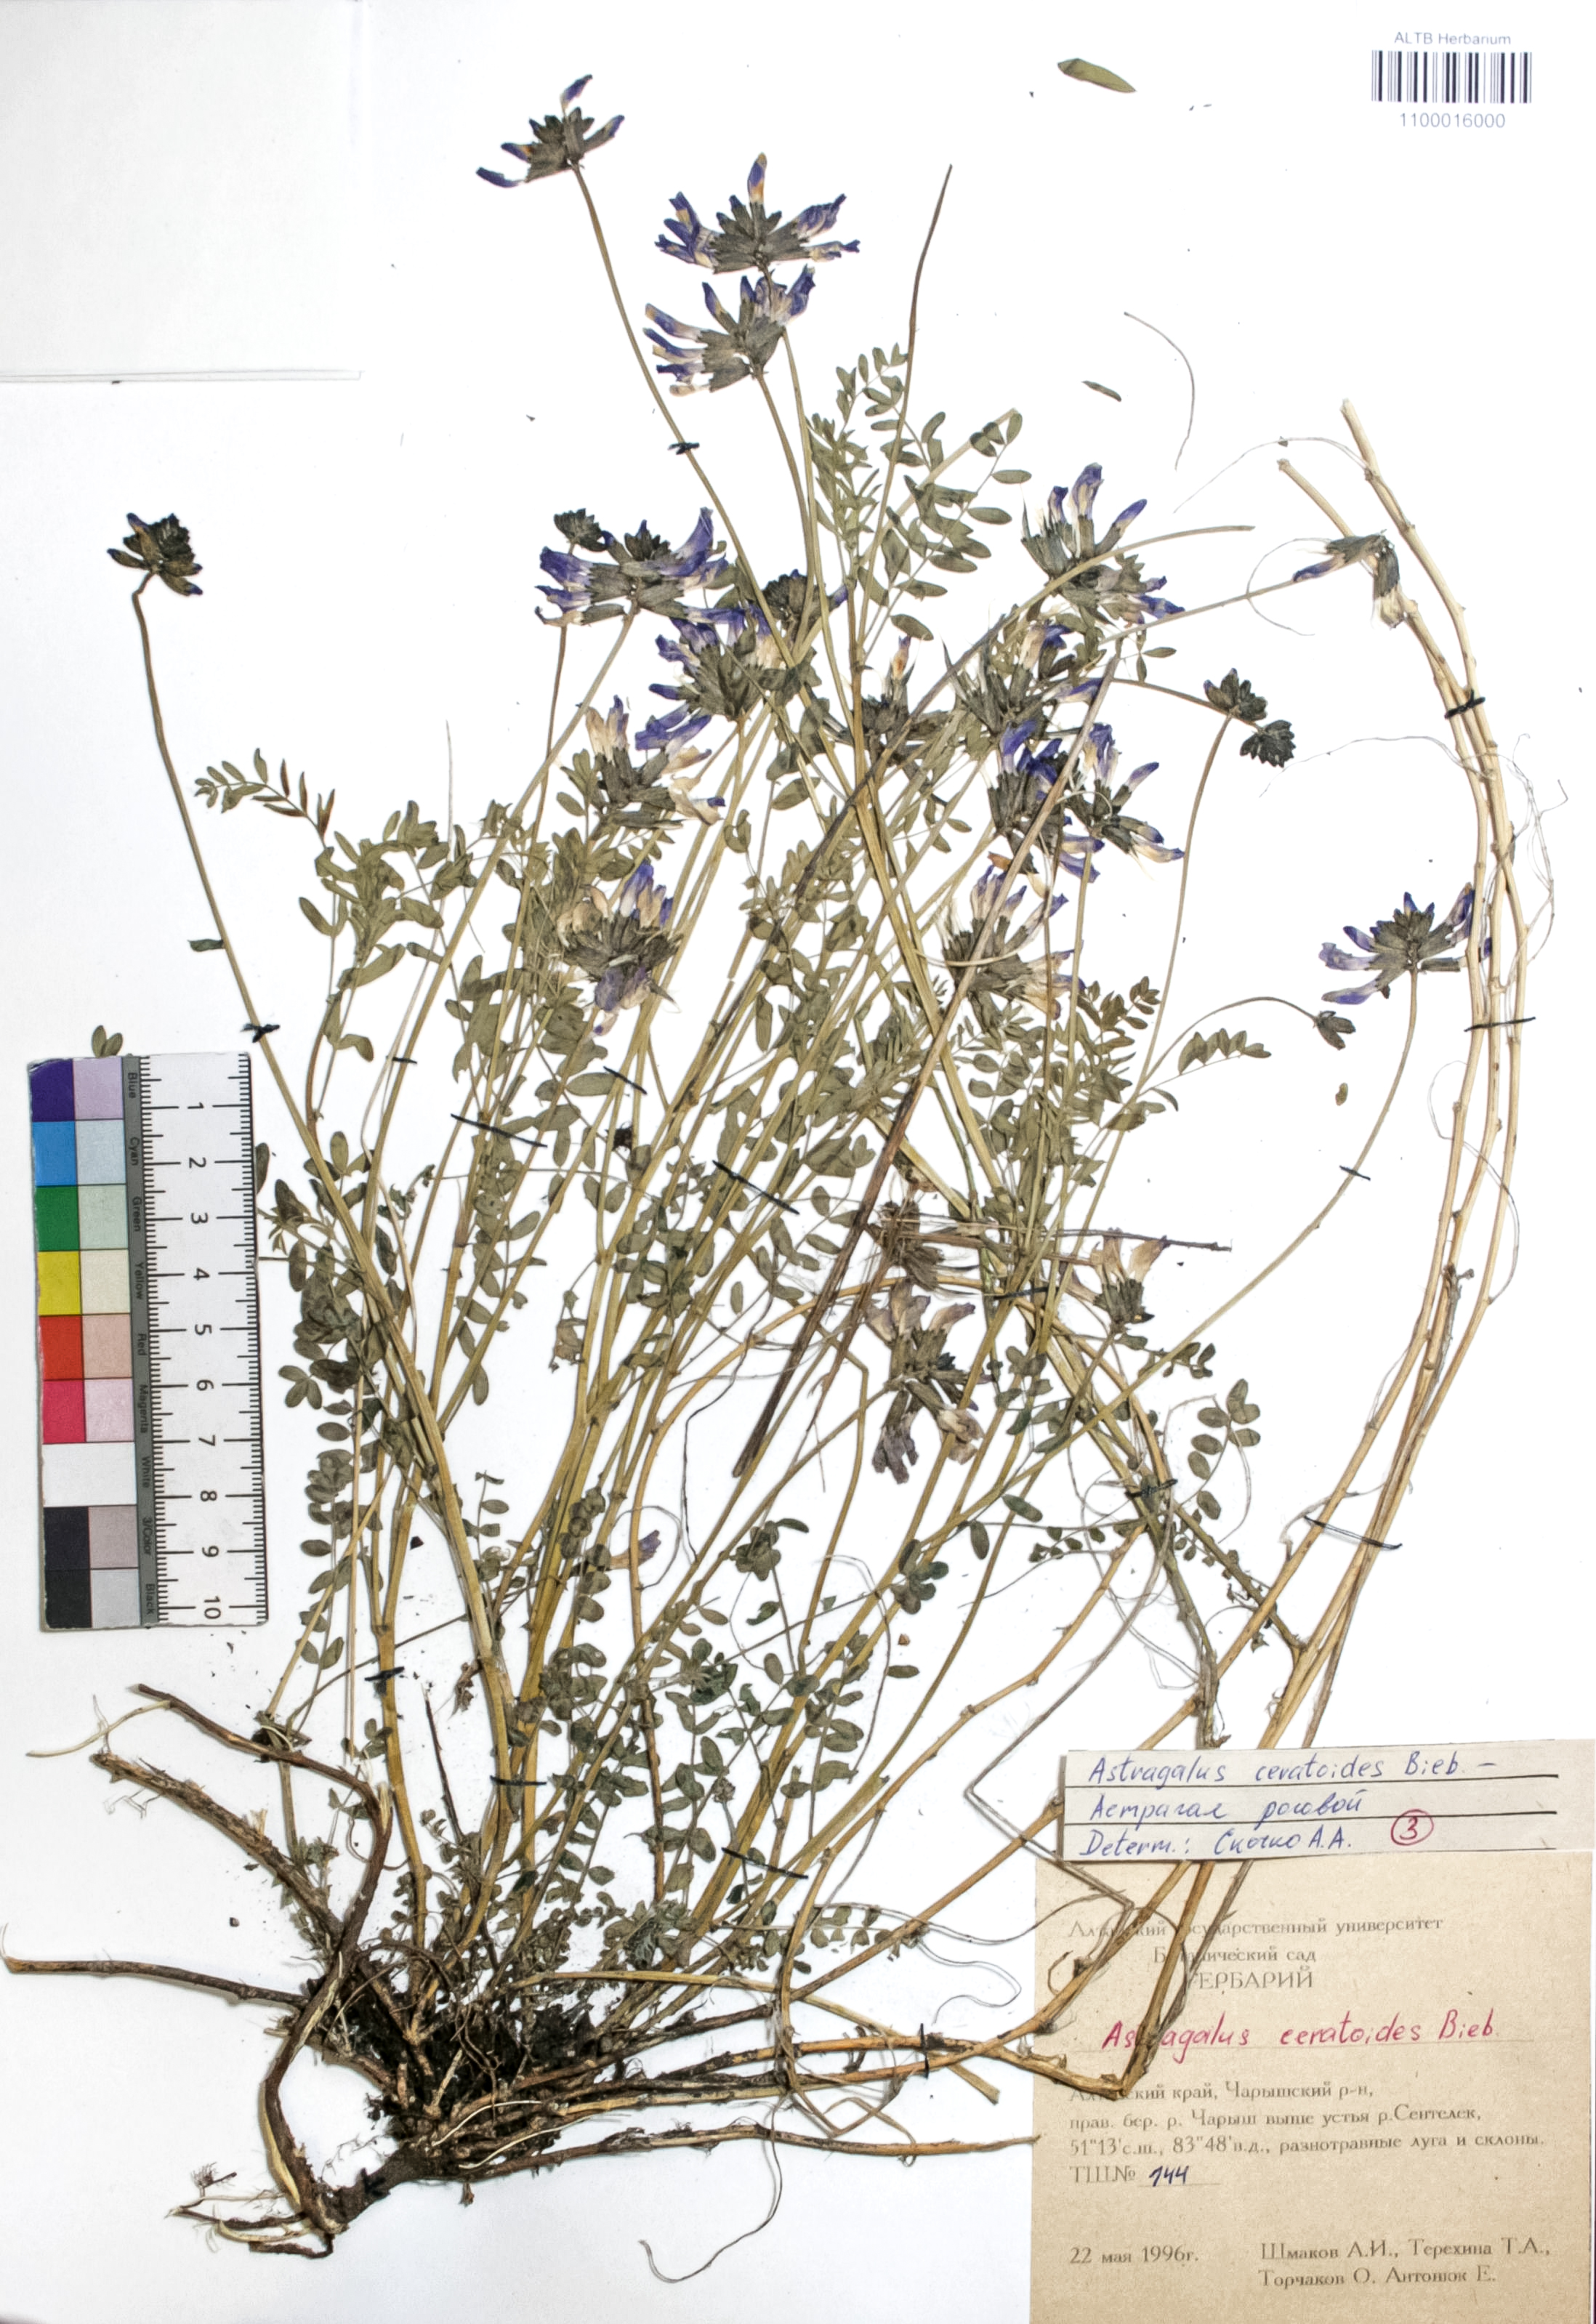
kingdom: Plantae
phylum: Tracheophyta
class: Magnoliopsida
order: Fabales
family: Fabaceae
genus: Astragalus
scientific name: Astragalus ceratoides
